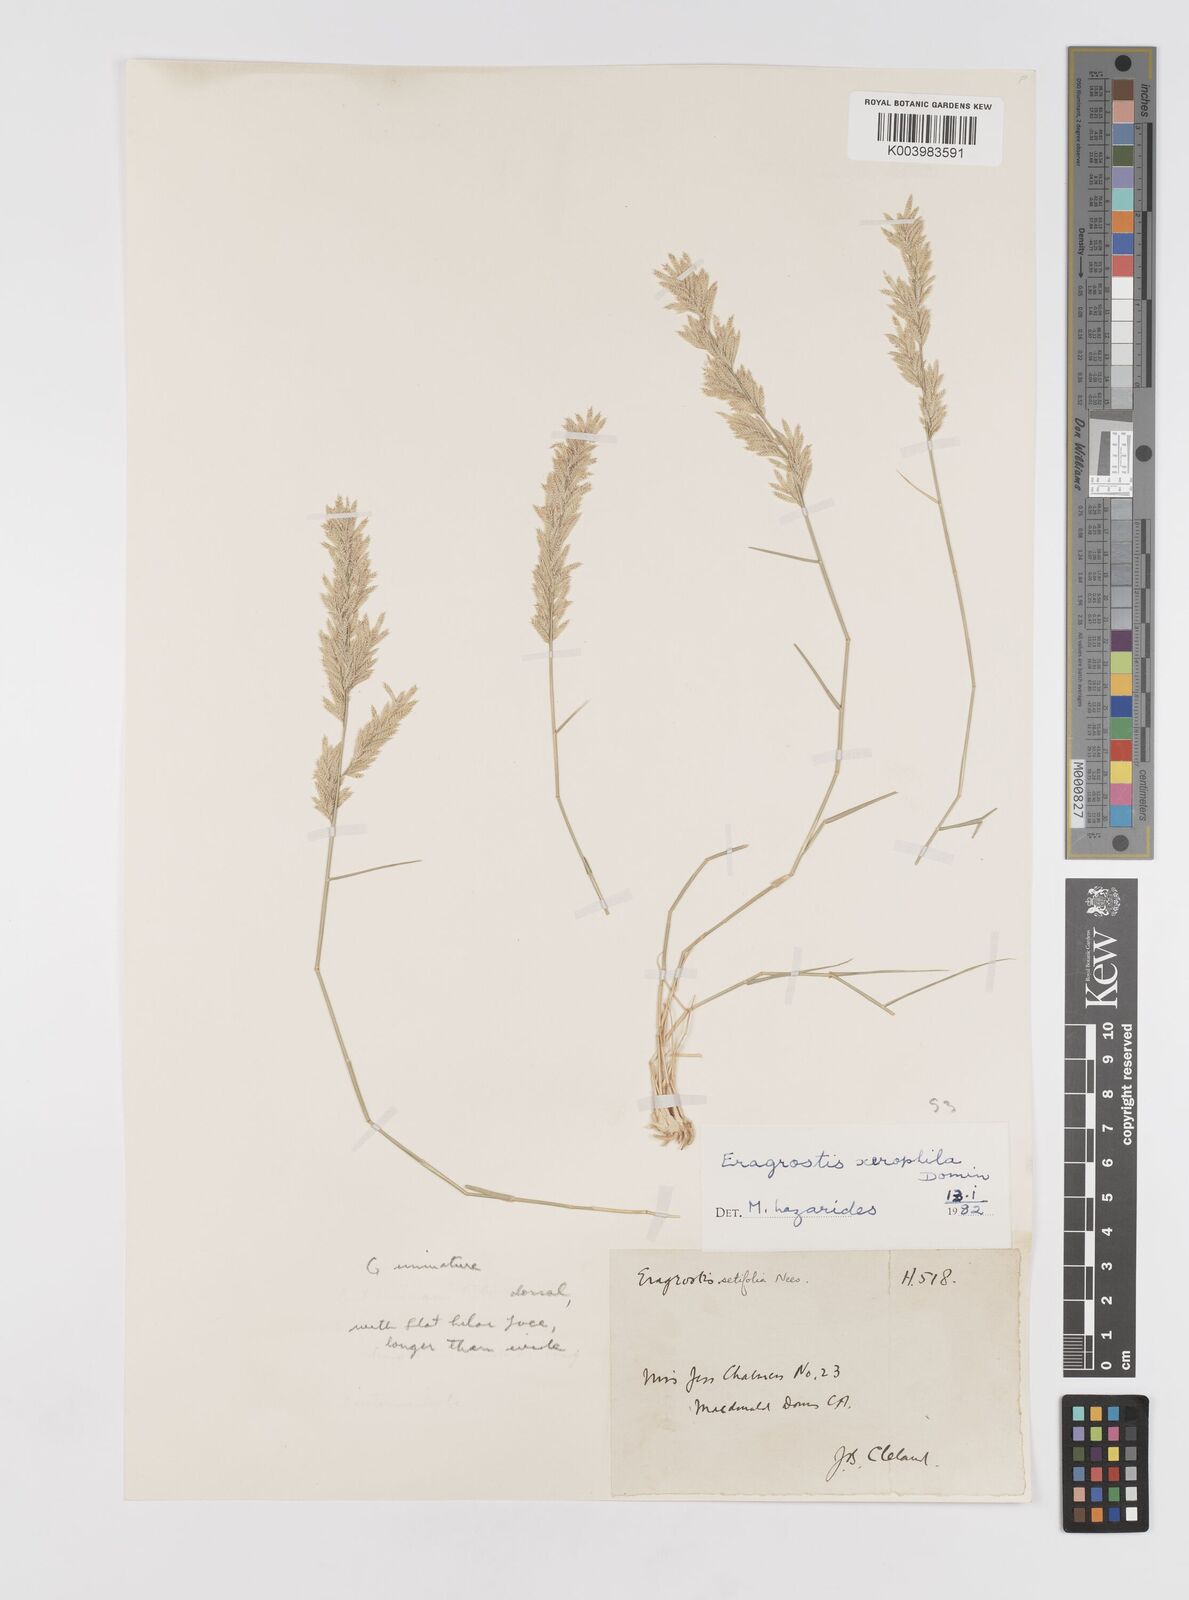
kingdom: Plantae
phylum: Tracheophyta
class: Liliopsida
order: Poales
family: Poaceae
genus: Eragrostis
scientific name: Eragrostis xerophila
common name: Wire wandarrie grass
